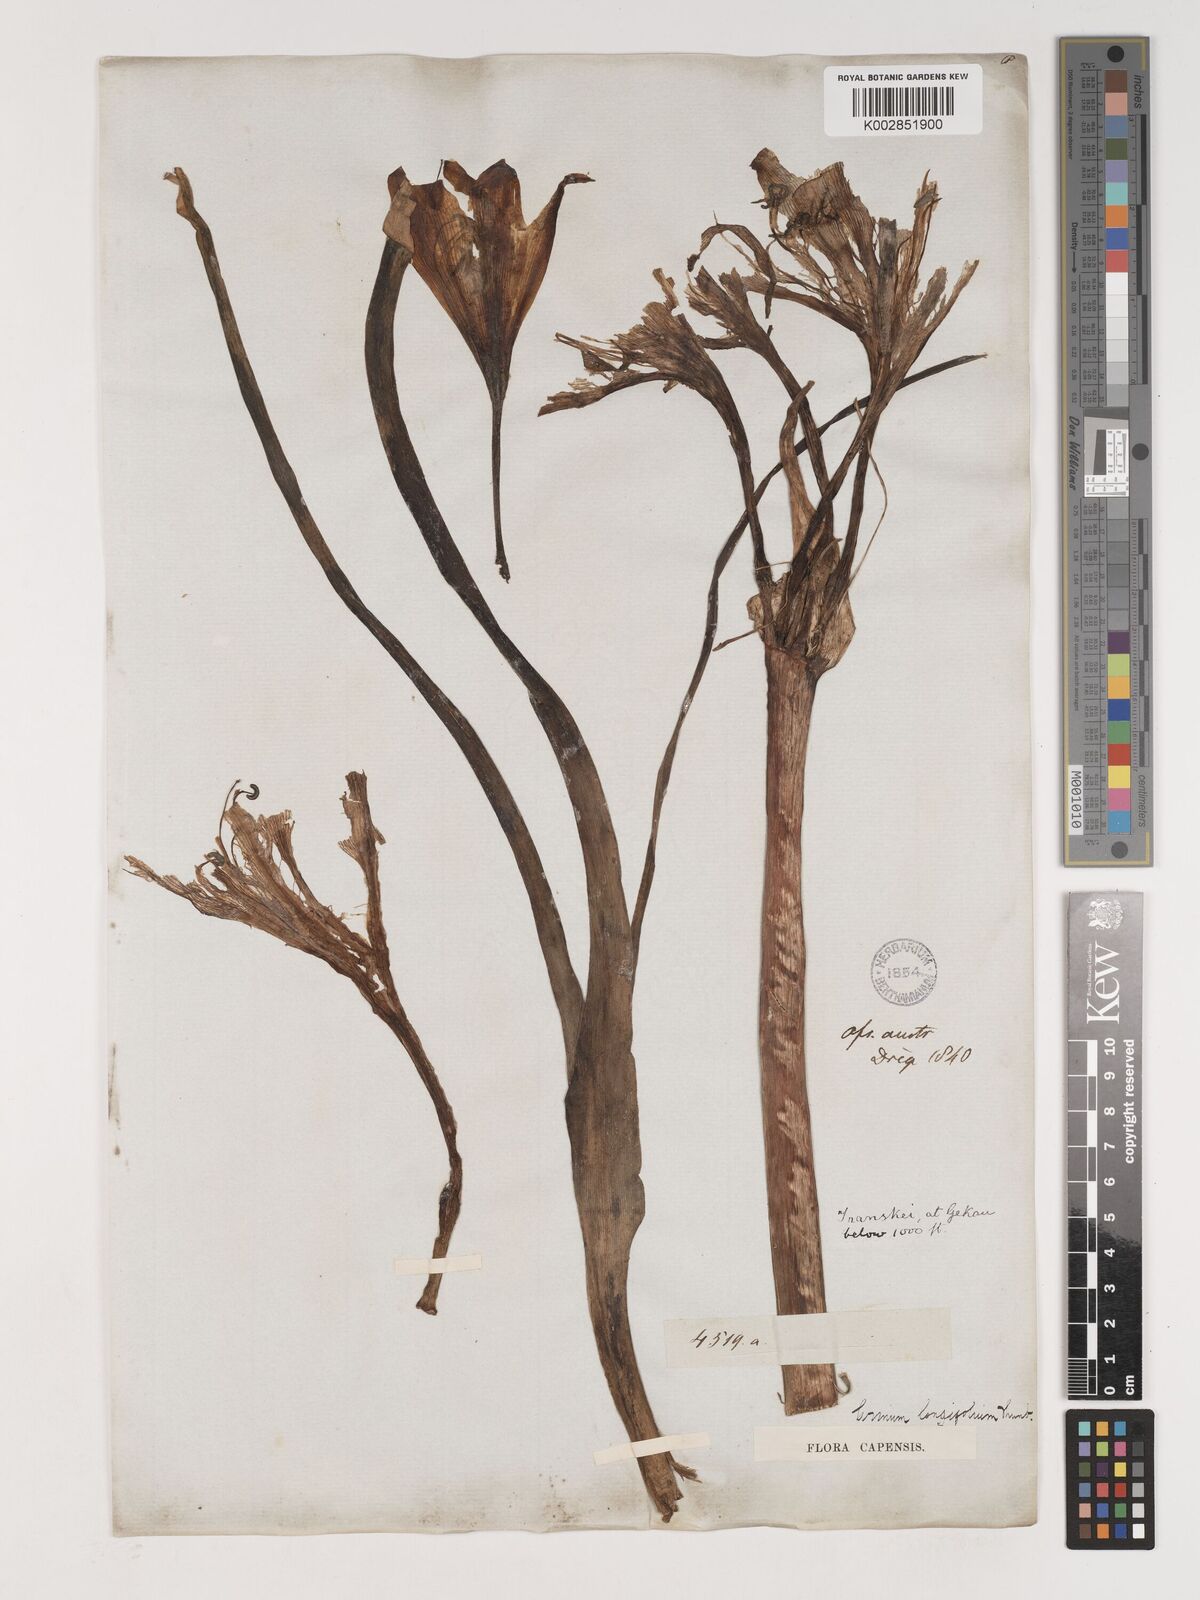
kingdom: Plantae
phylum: Tracheophyta
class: Liliopsida
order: Asparagales
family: Amaryllidaceae
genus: Crinum
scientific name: Crinum bulbispermum
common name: Hardy swamplily
